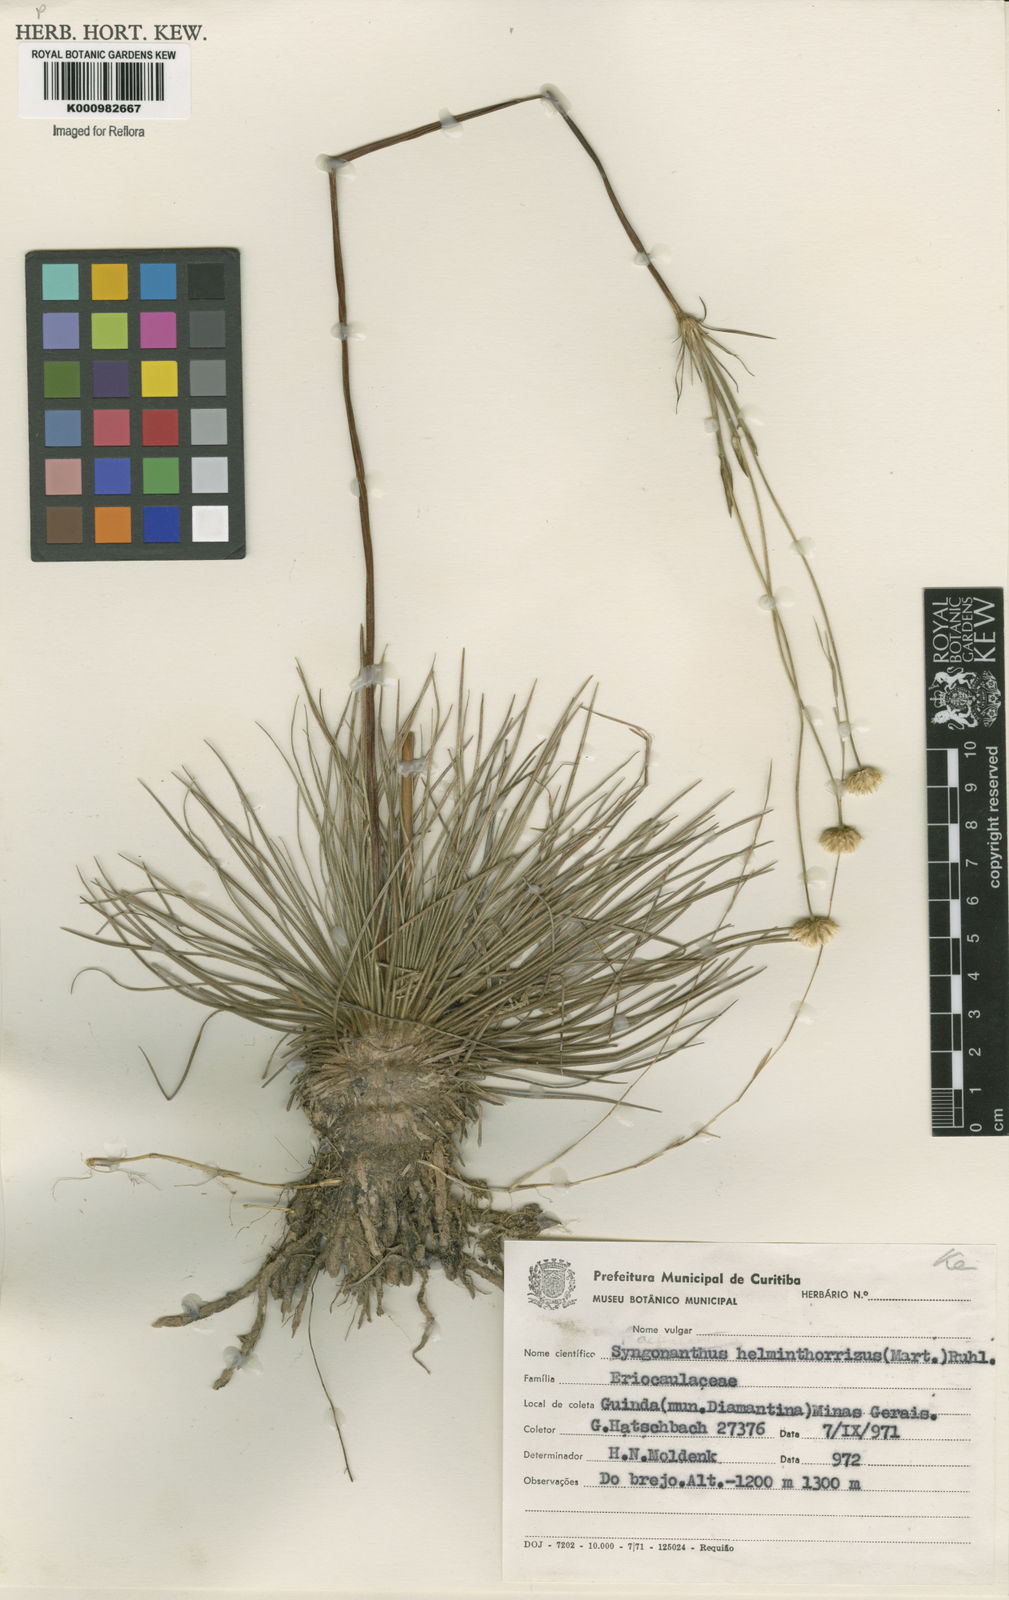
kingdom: Plantae
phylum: Tracheophyta
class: Liliopsida
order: Poales
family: Eriocaulaceae
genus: Syngonanthus
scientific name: Syngonanthus
